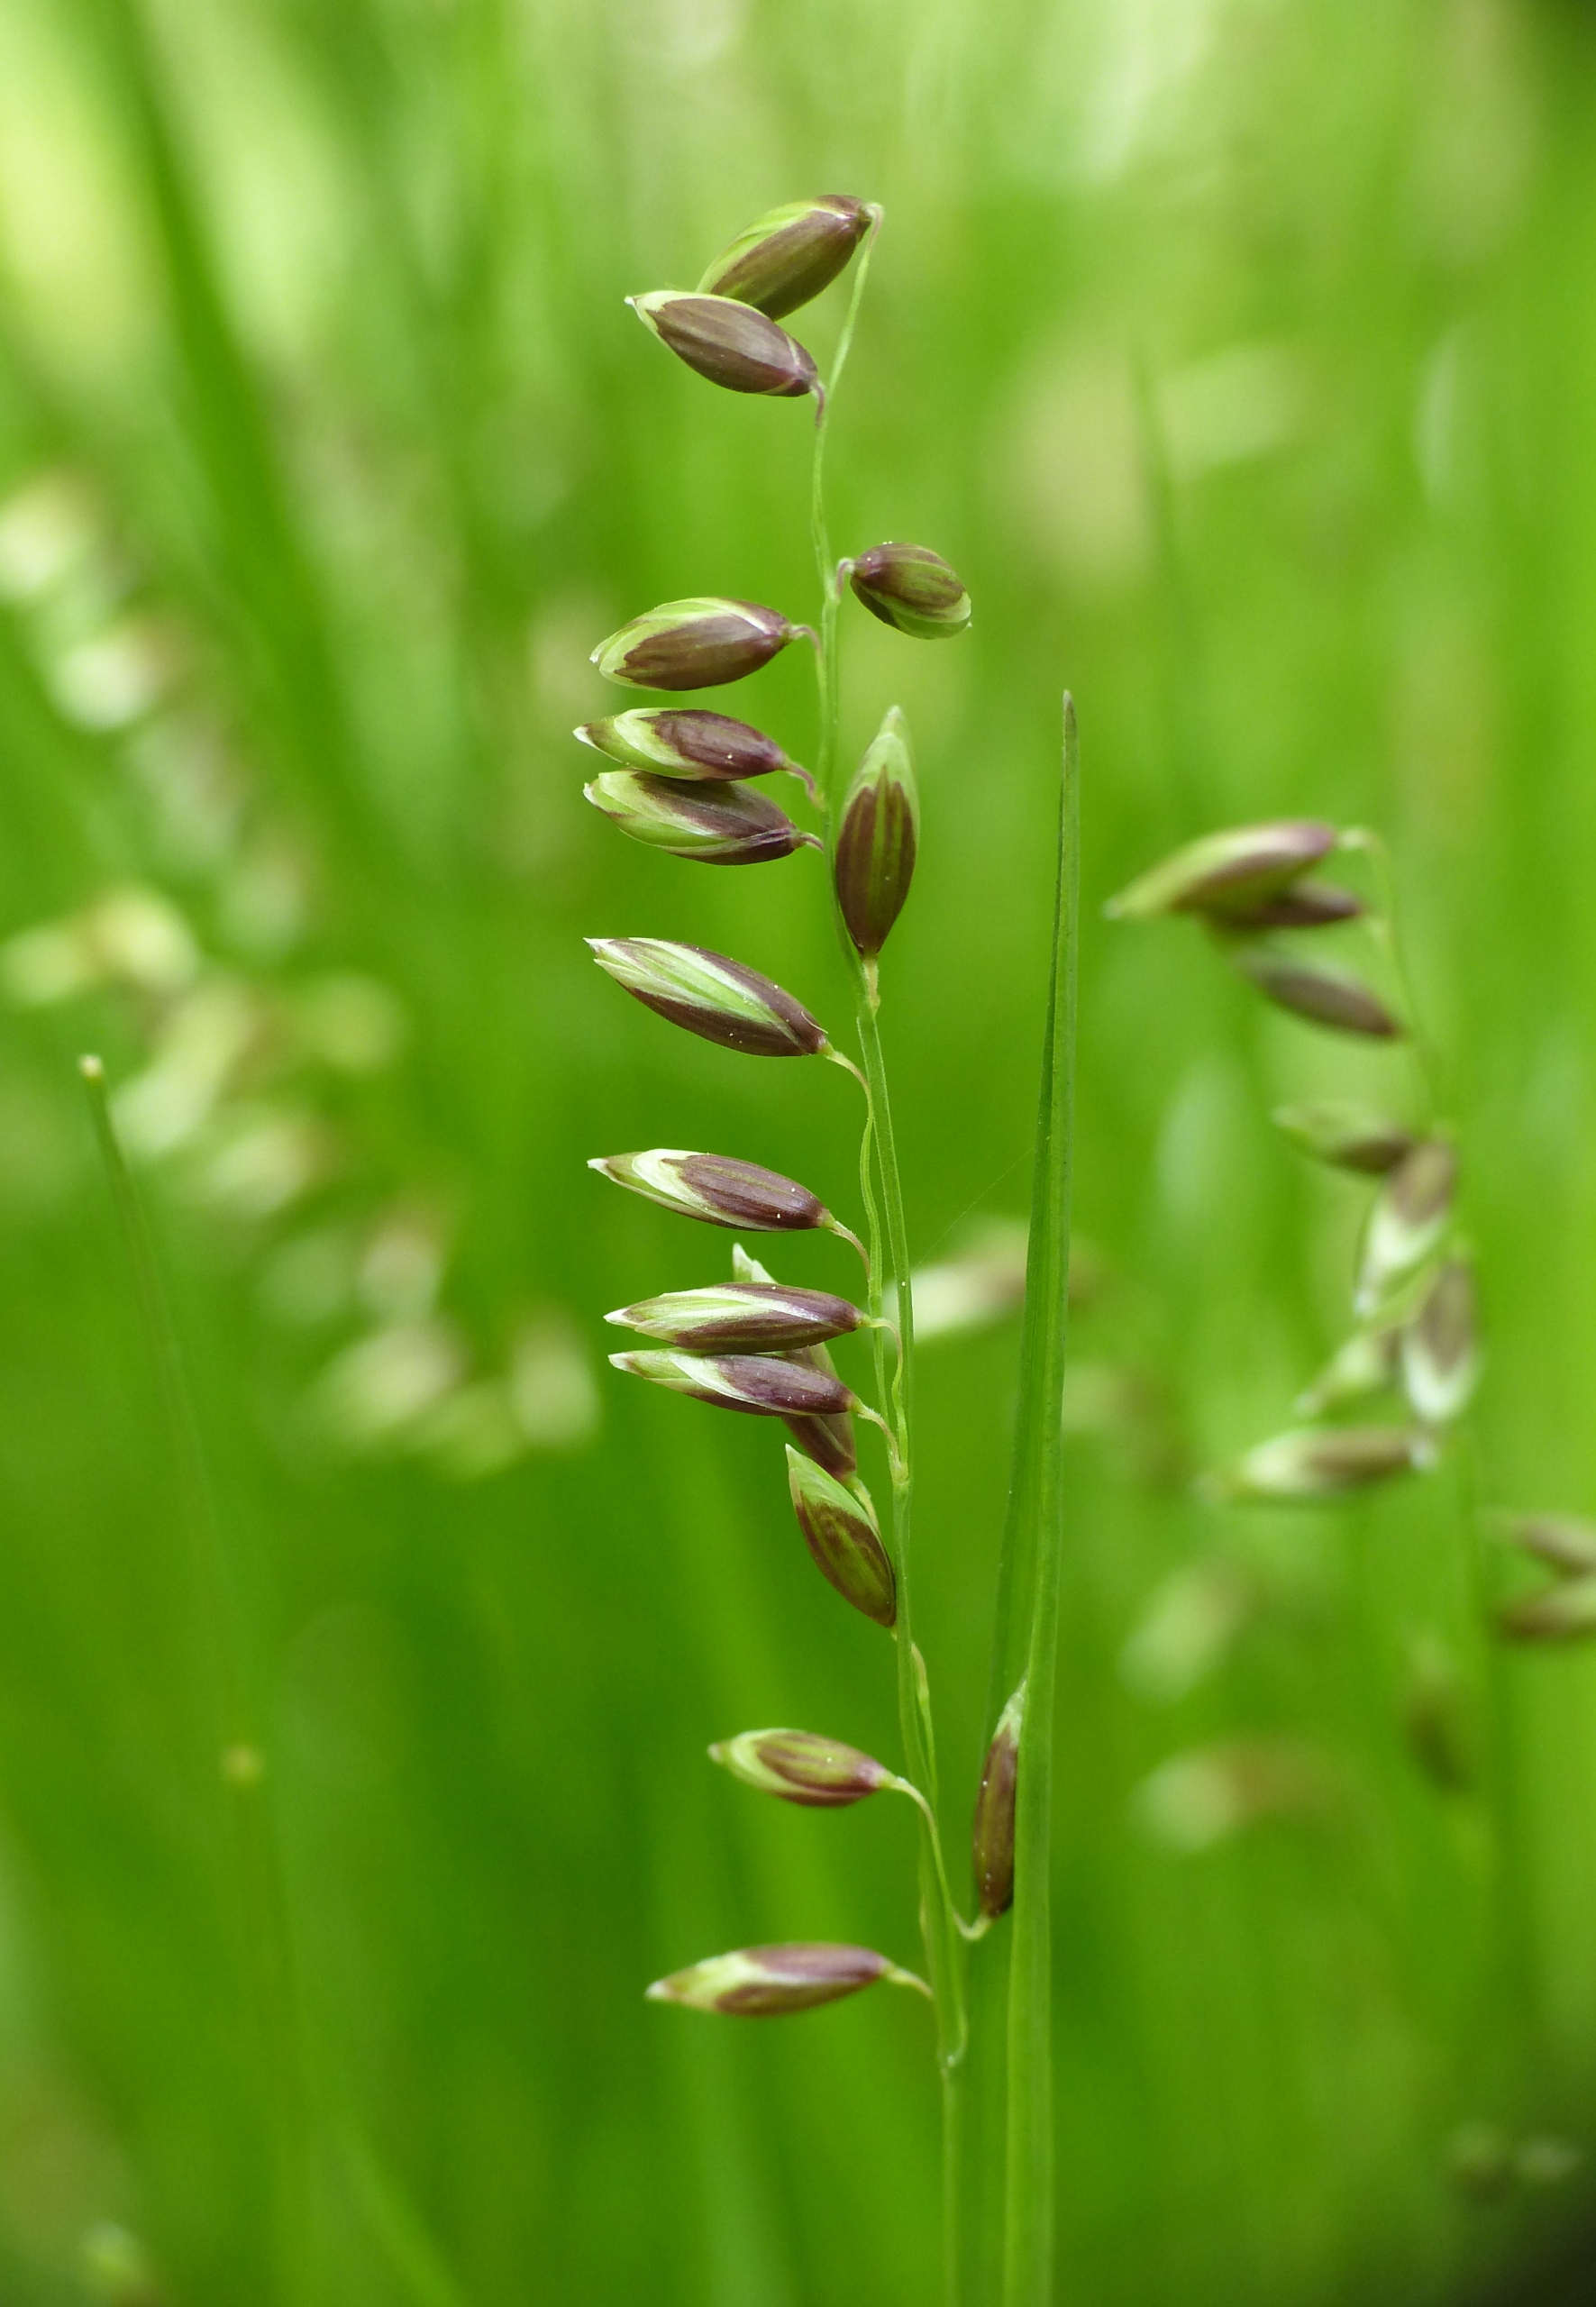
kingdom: Plantae
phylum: Tracheophyta
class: Liliopsida
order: Poales
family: Poaceae
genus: Melica
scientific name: Melica nutans
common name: Nikkende flitteraks
